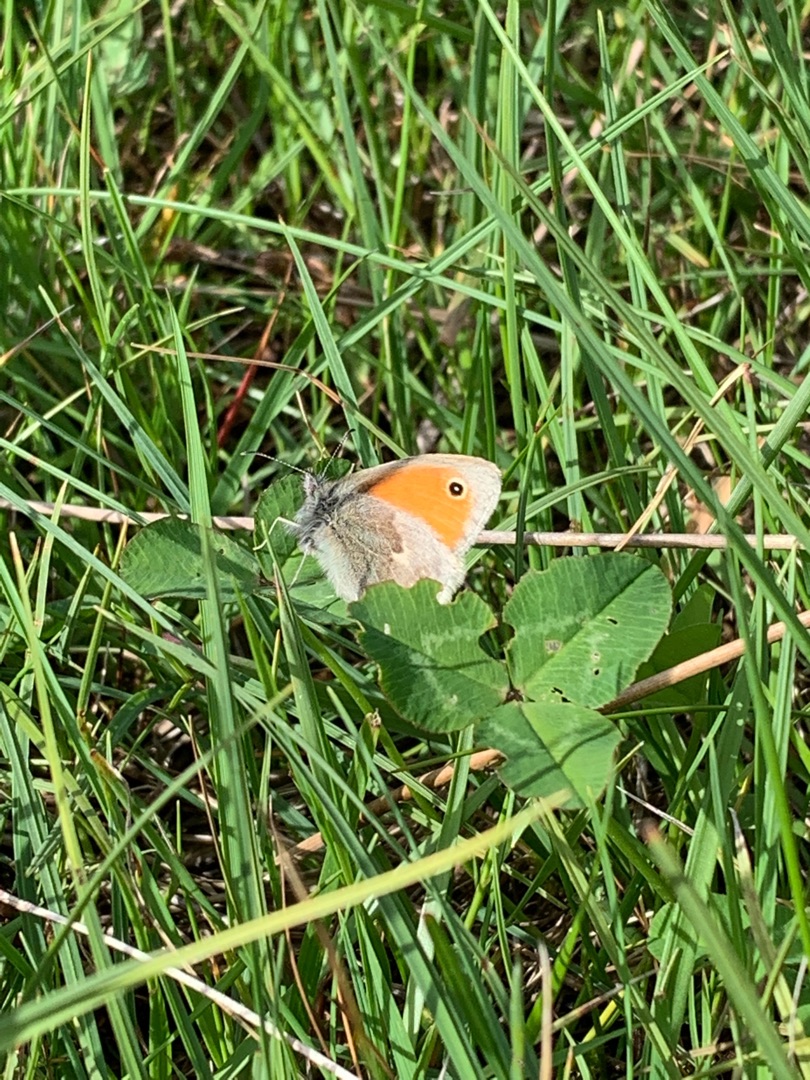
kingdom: Animalia
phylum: Arthropoda
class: Insecta
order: Lepidoptera
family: Nymphalidae
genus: Coenonympha
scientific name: Coenonympha pamphilus
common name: Okkergul randøje
